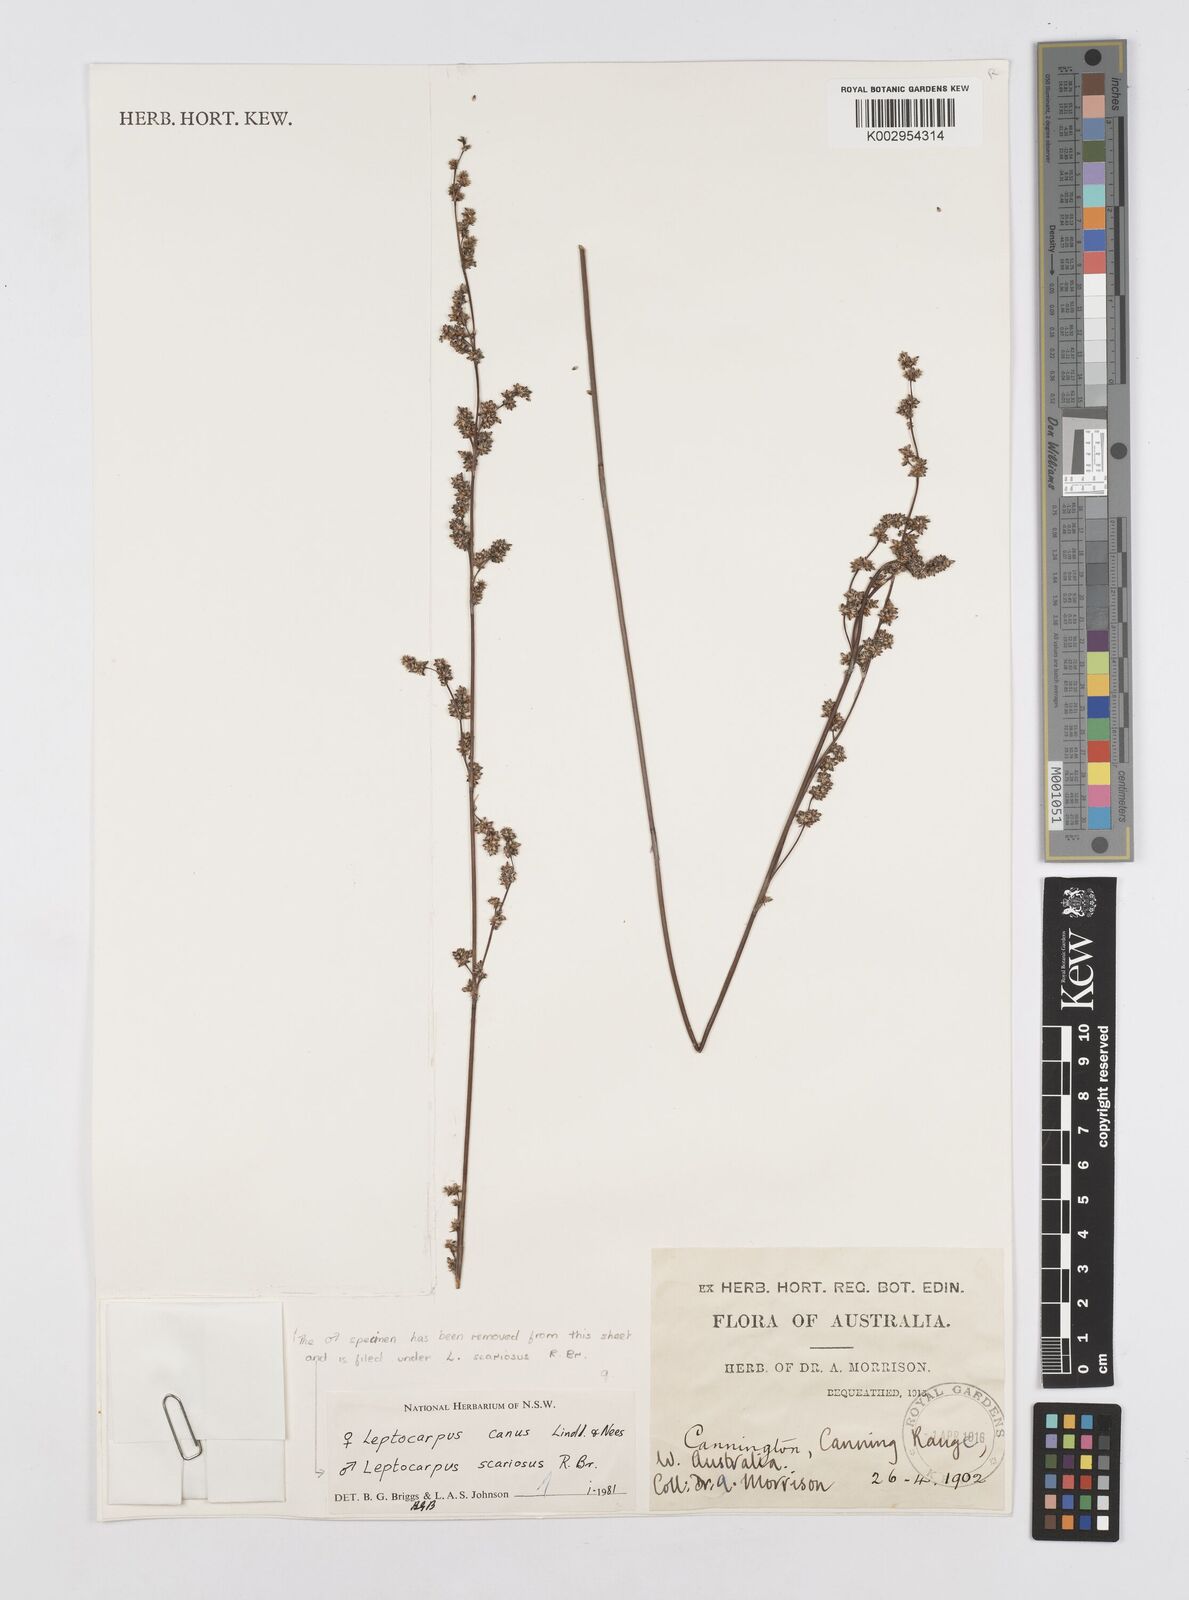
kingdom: Plantae
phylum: Tracheophyta
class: Liliopsida
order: Poales
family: Restionaceae
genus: Leptocarpus
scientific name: Leptocarpus canus
